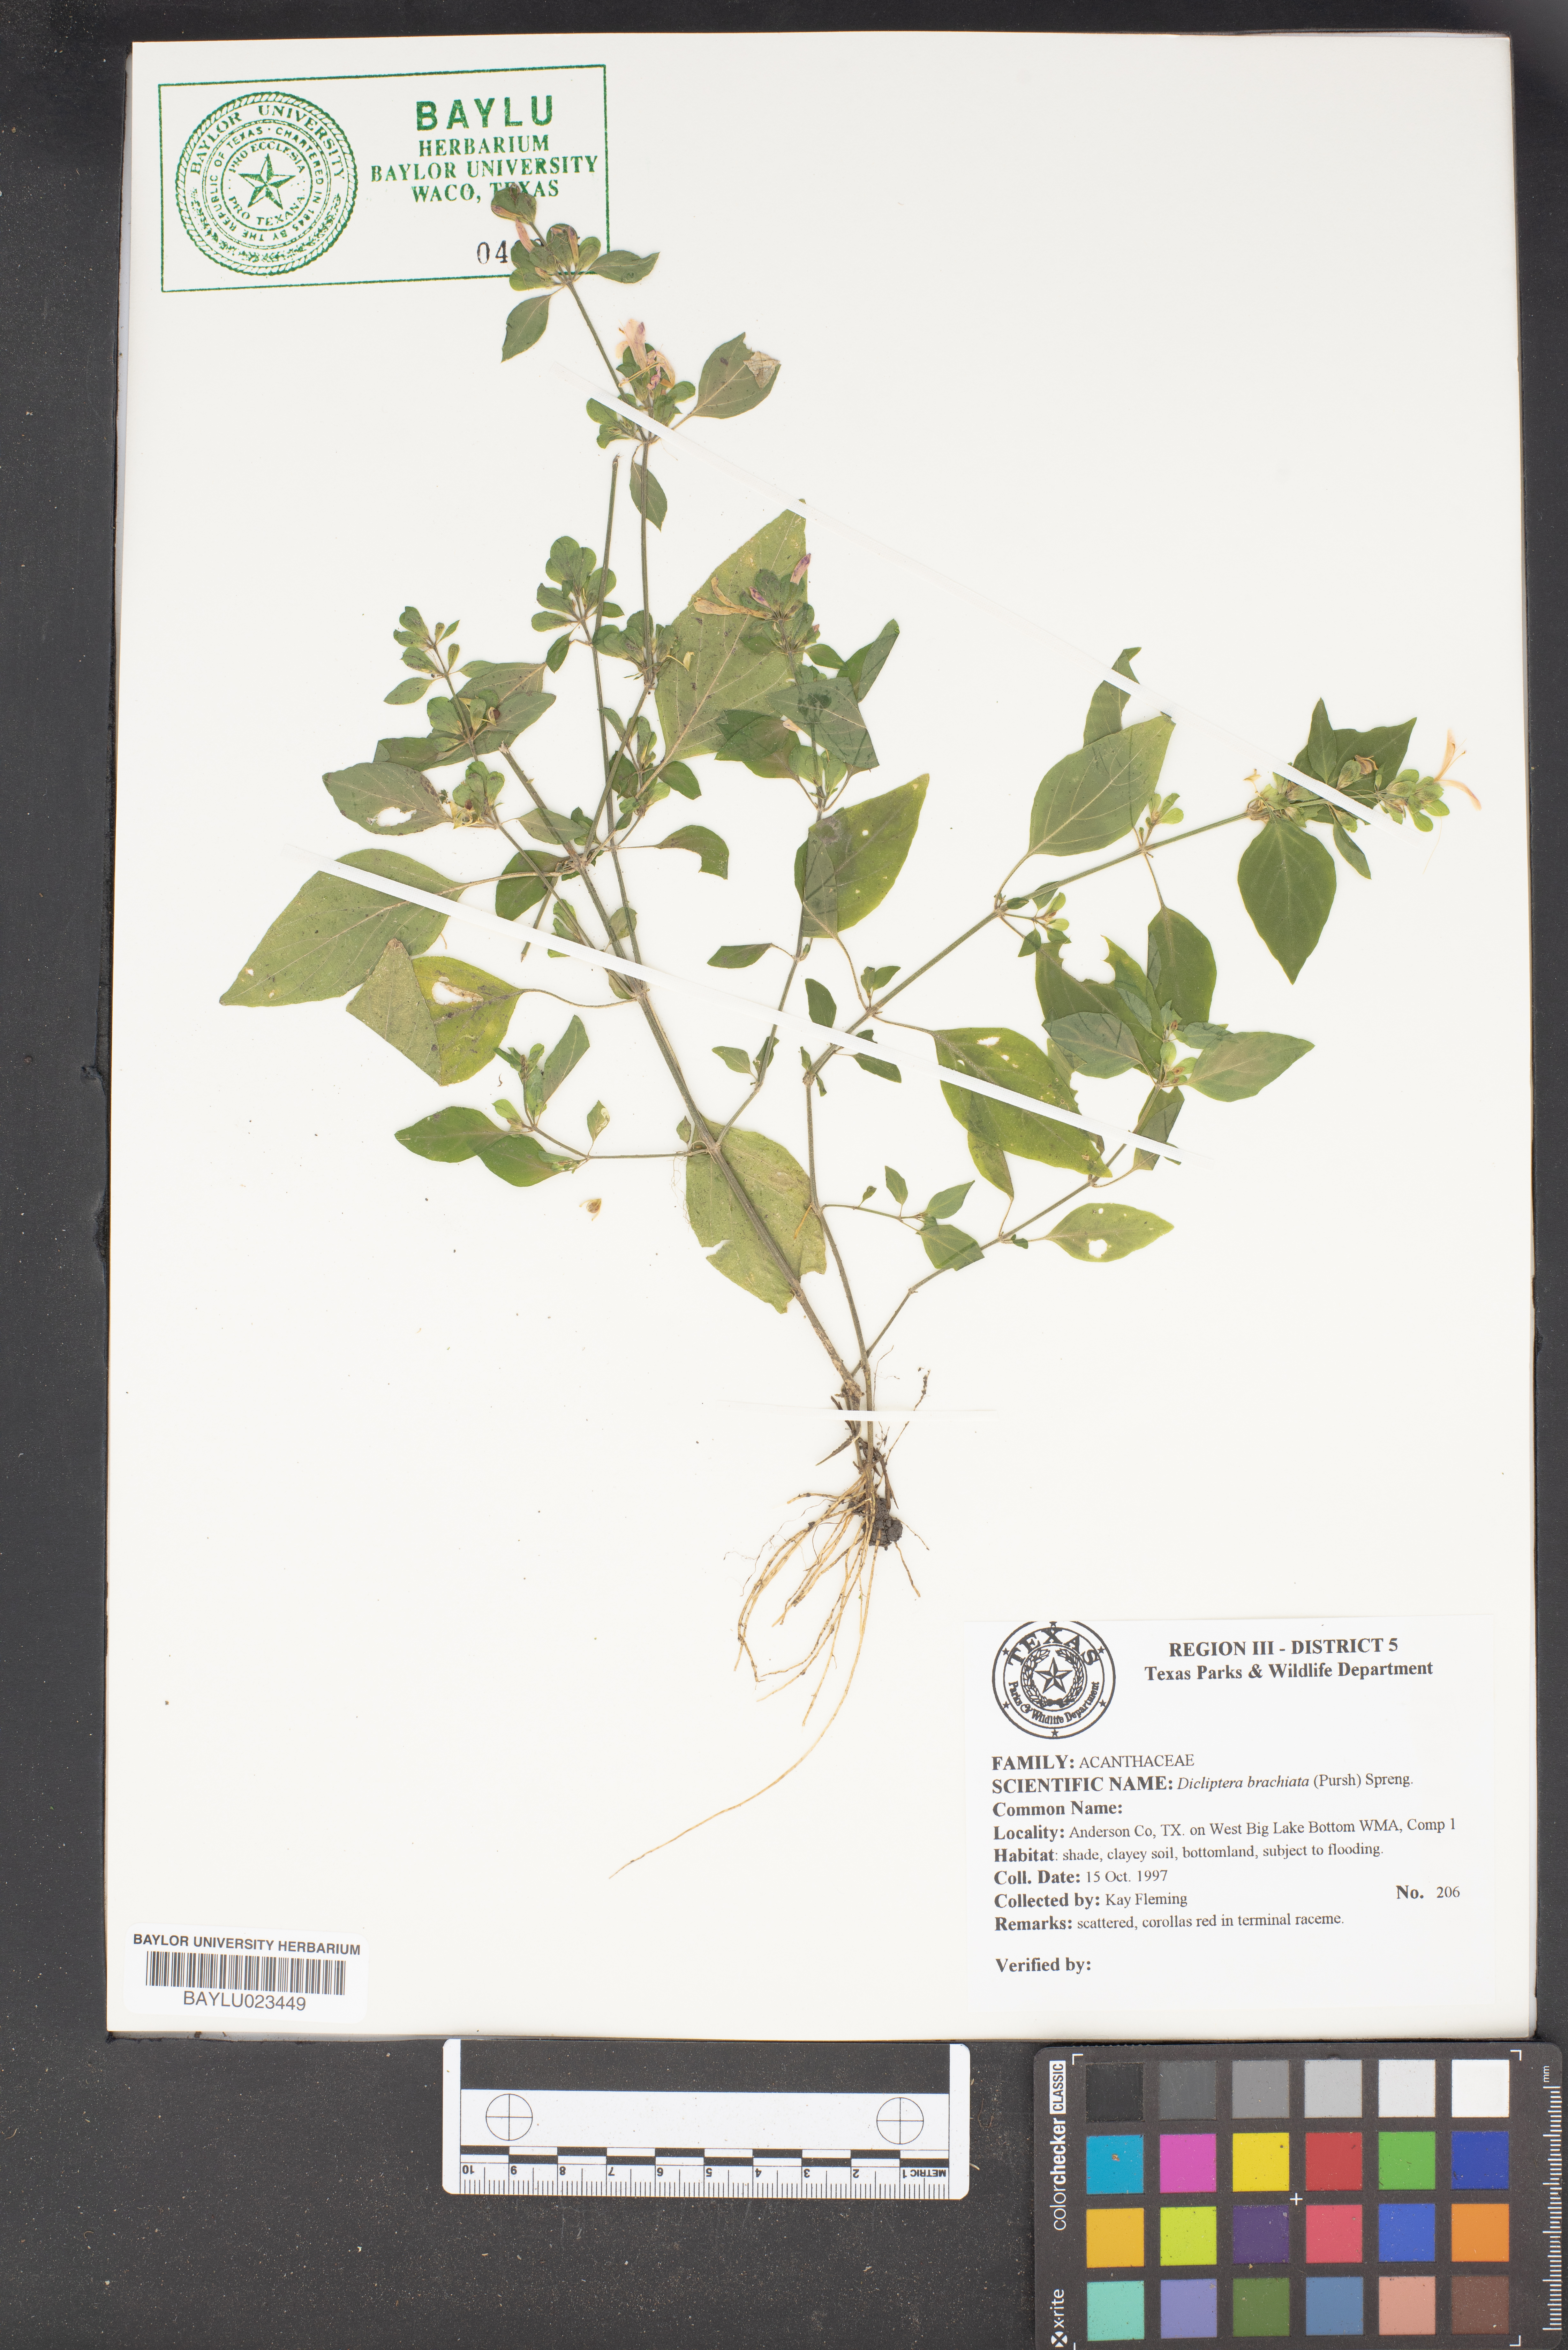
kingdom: Plantae
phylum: Tracheophyta
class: Magnoliopsida
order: Lamiales
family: Acanthaceae
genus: Dicliptera
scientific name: Dicliptera brachiata
